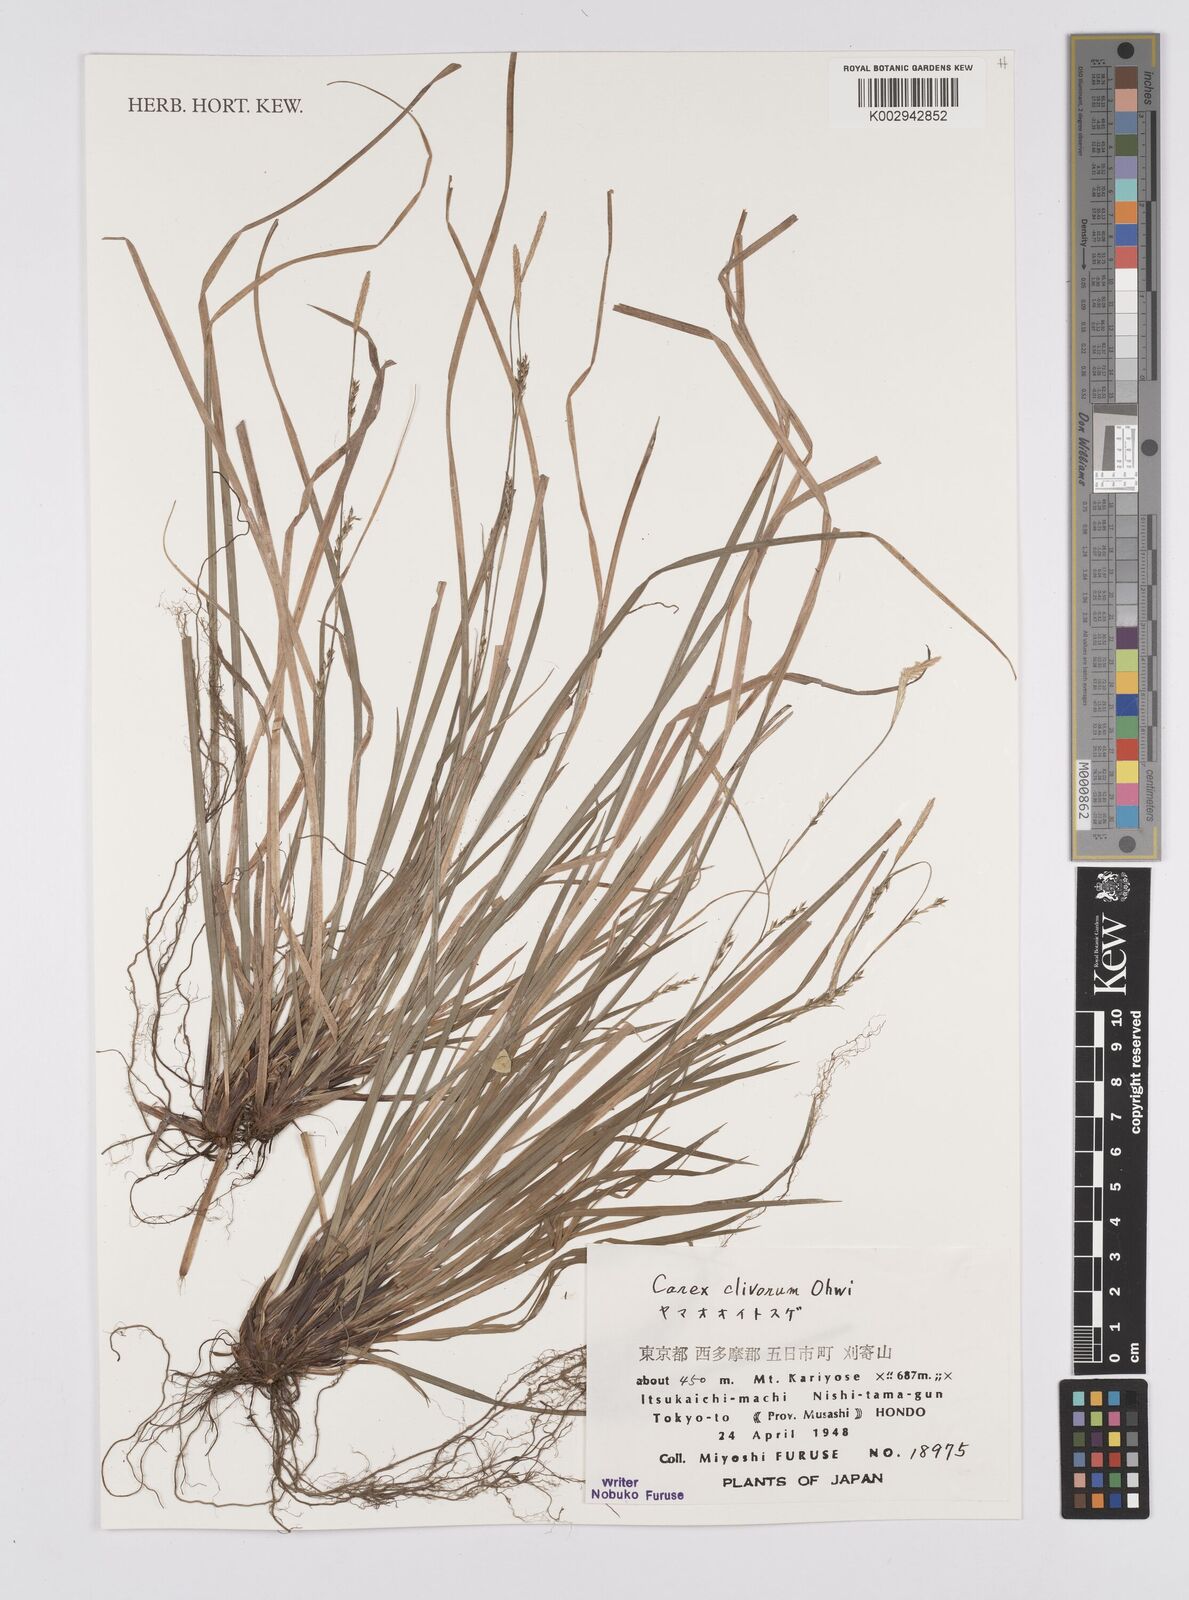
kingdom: Plantae
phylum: Tracheophyta
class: Liliopsida
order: Poales
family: Cyperaceae
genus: Carex
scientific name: Carex clivorum
